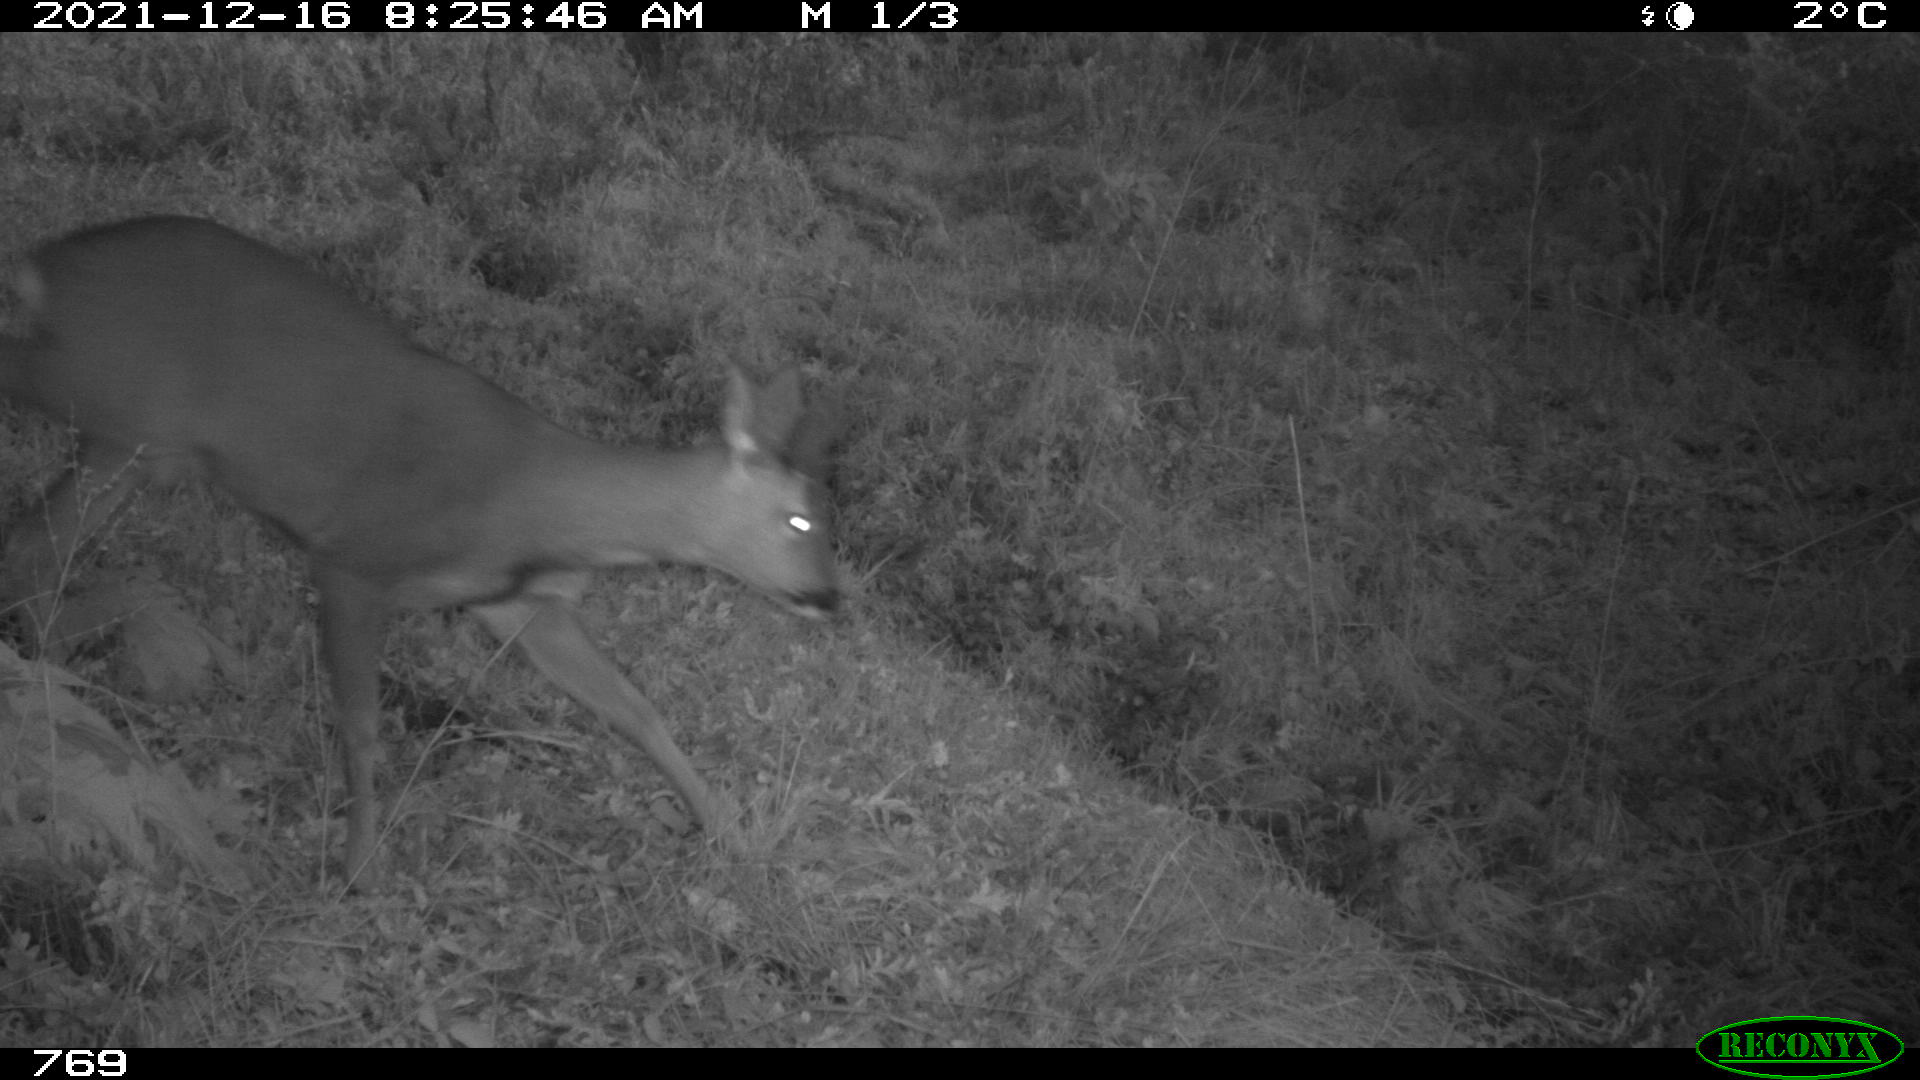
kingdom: Animalia
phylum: Chordata
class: Mammalia
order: Artiodactyla
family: Cervidae
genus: Capreolus
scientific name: Capreolus capreolus
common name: Western roe deer
